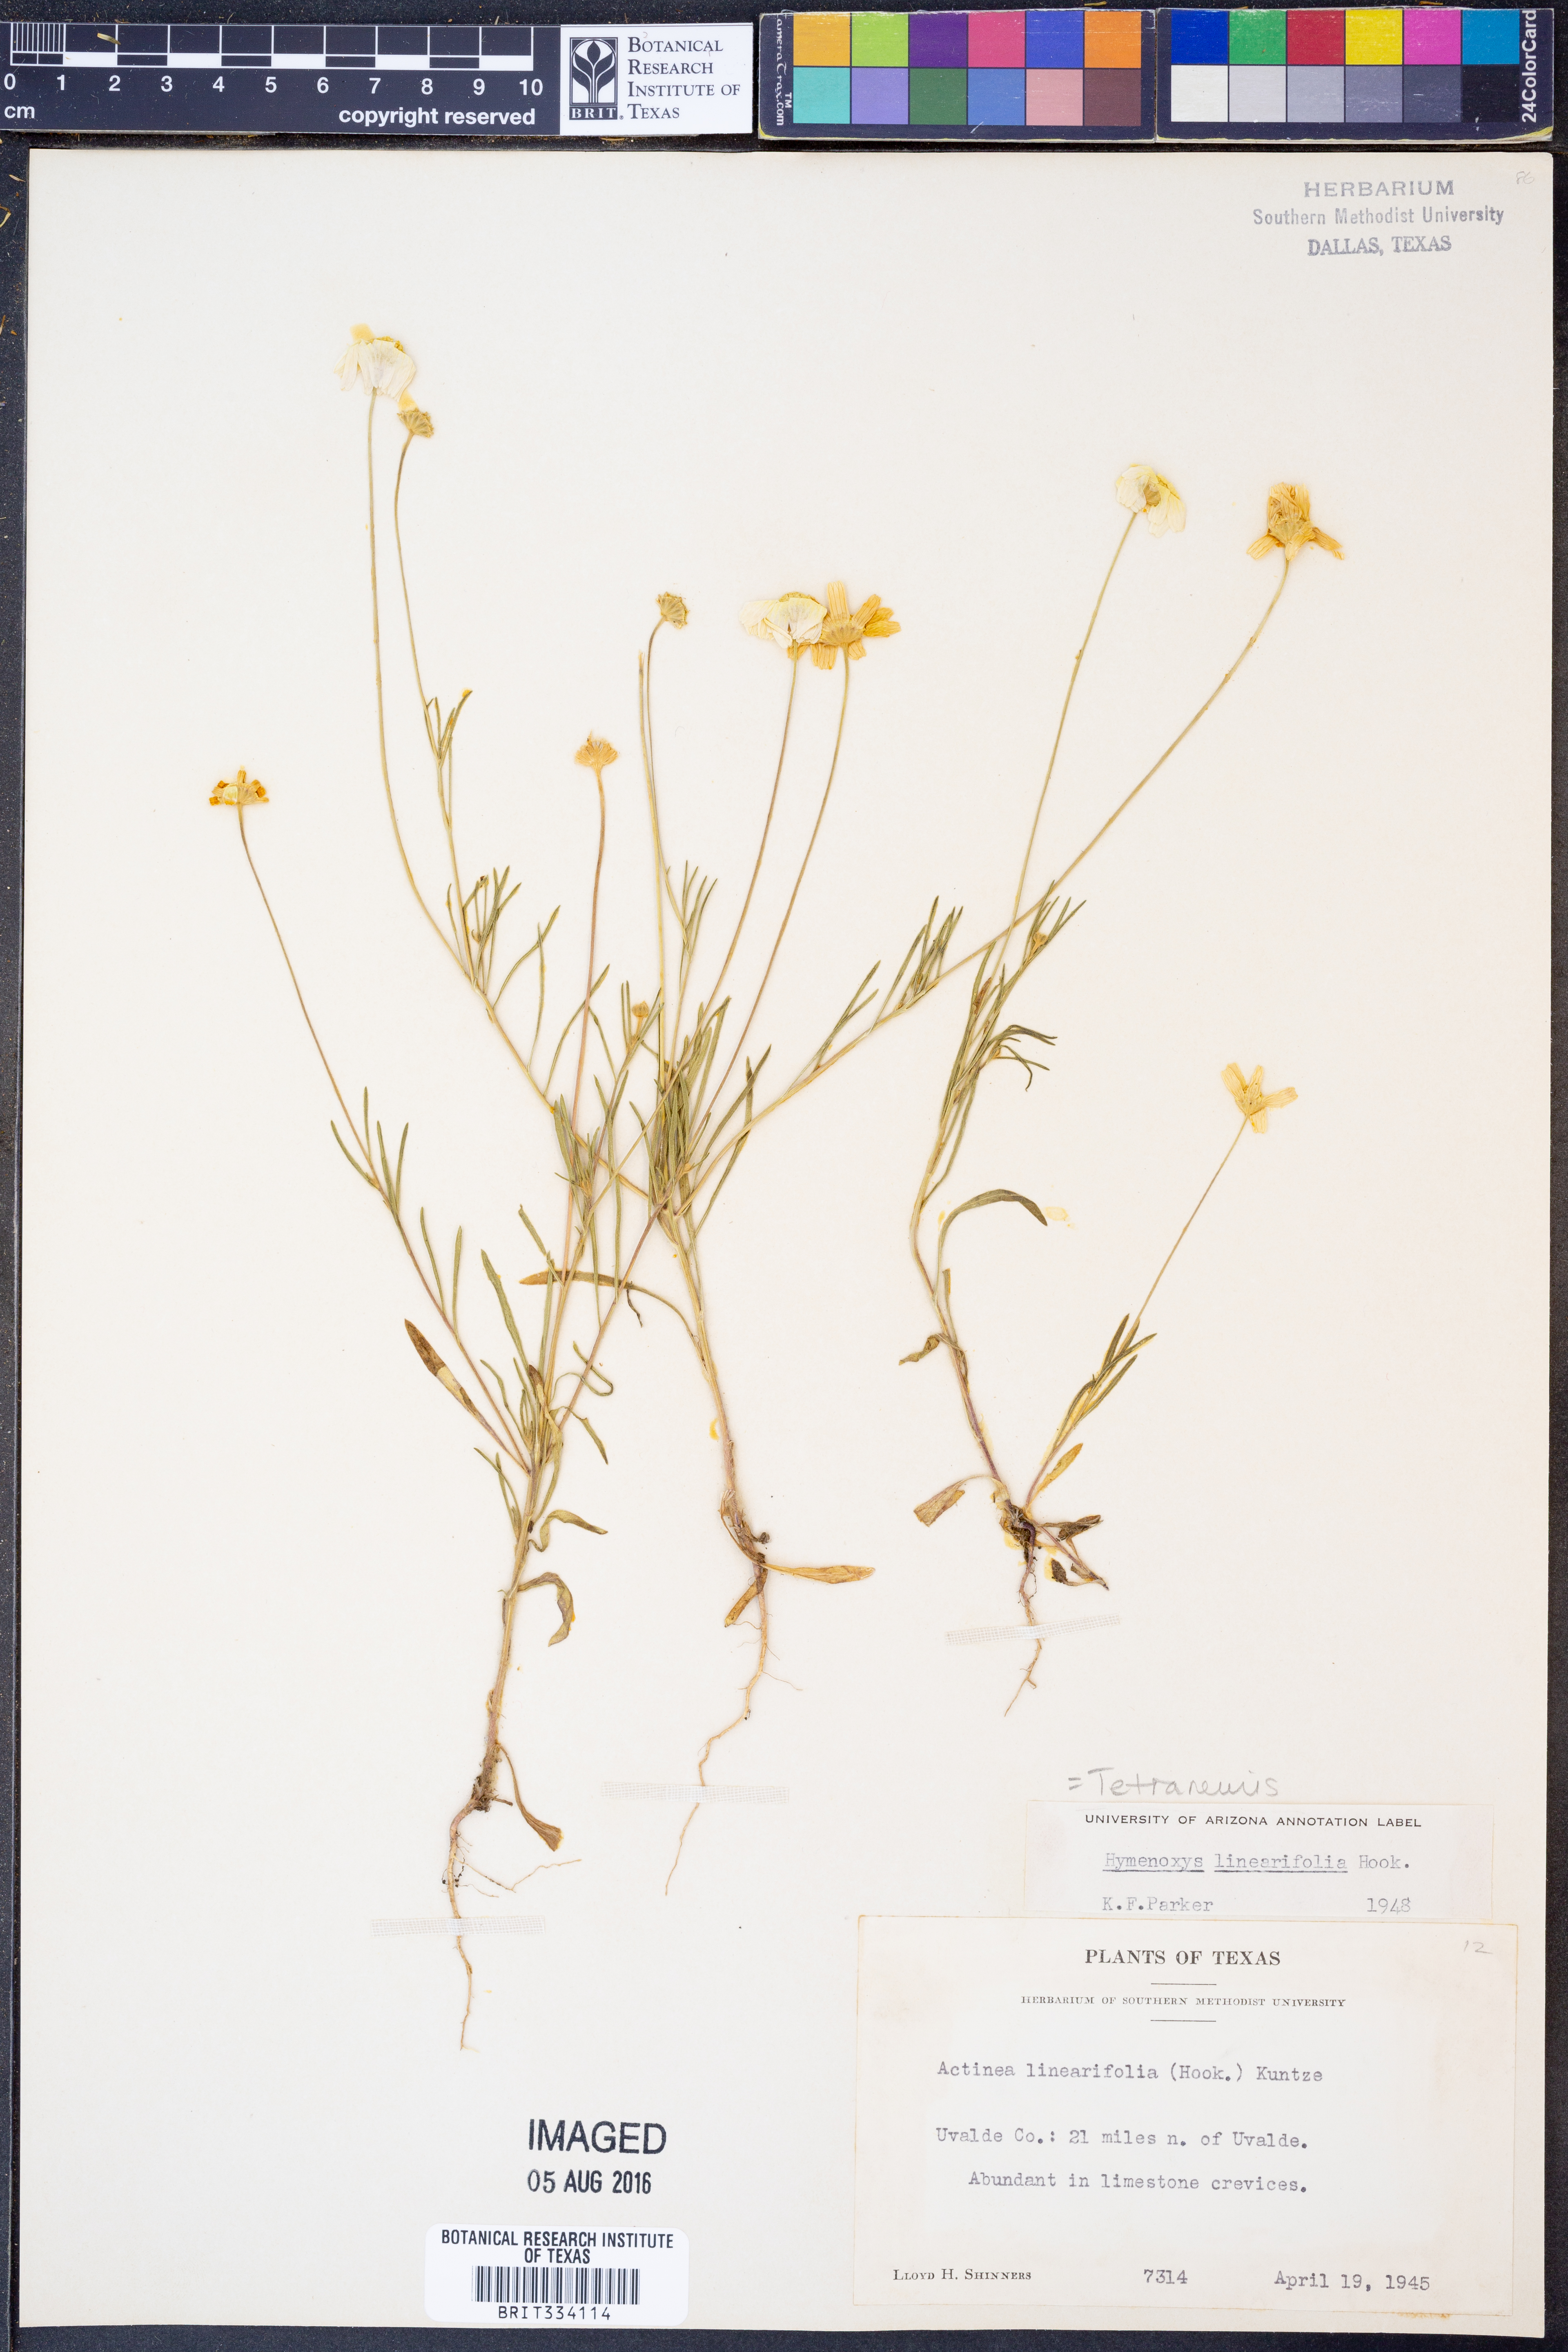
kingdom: Plantae
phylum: Tracheophyta
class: Magnoliopsida
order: Asterales
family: Asteraceae
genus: Tetraneuris
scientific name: Tetraneuris linearifolia
